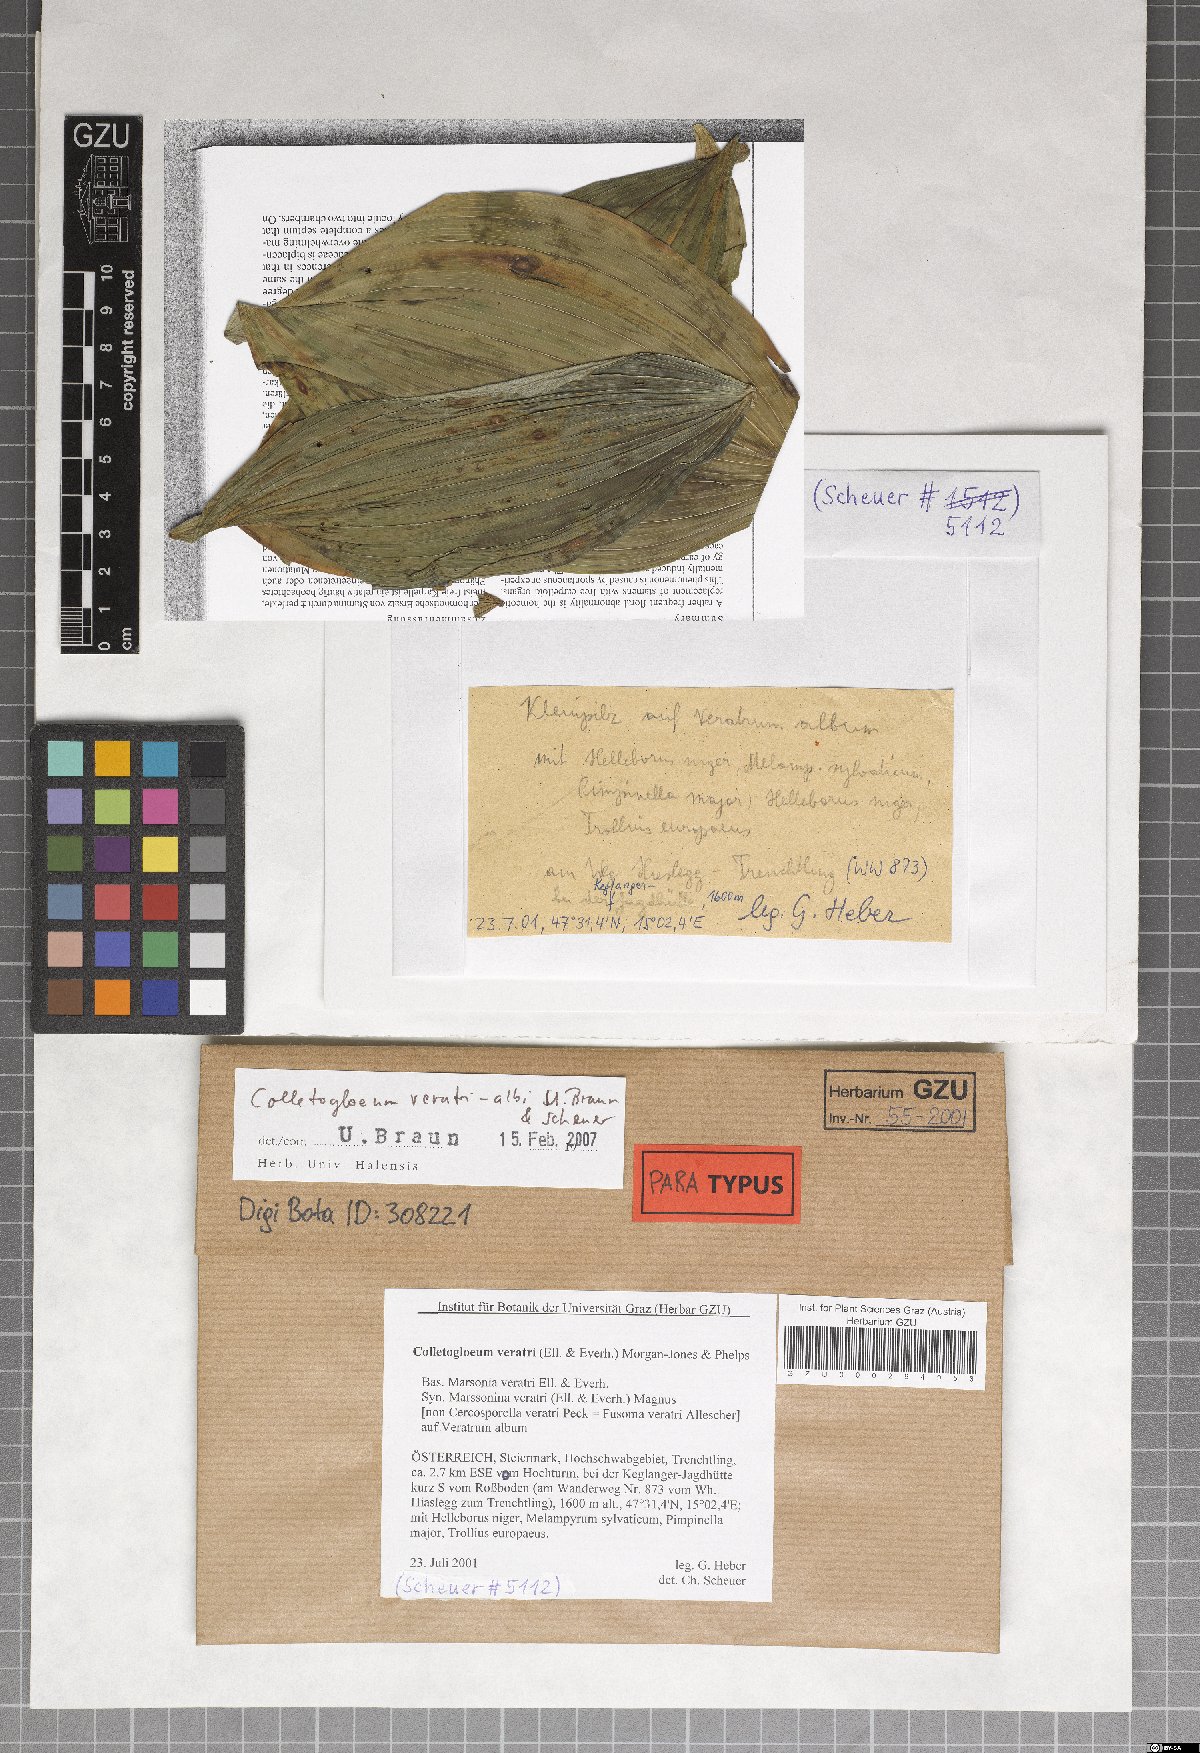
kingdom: Fungi
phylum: Ascomycota
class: Dothideomycetes
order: Mycosphaerellales
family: Mycosphaerellaceae
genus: Colletogloeum
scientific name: Colletogloeum veratri-albi
